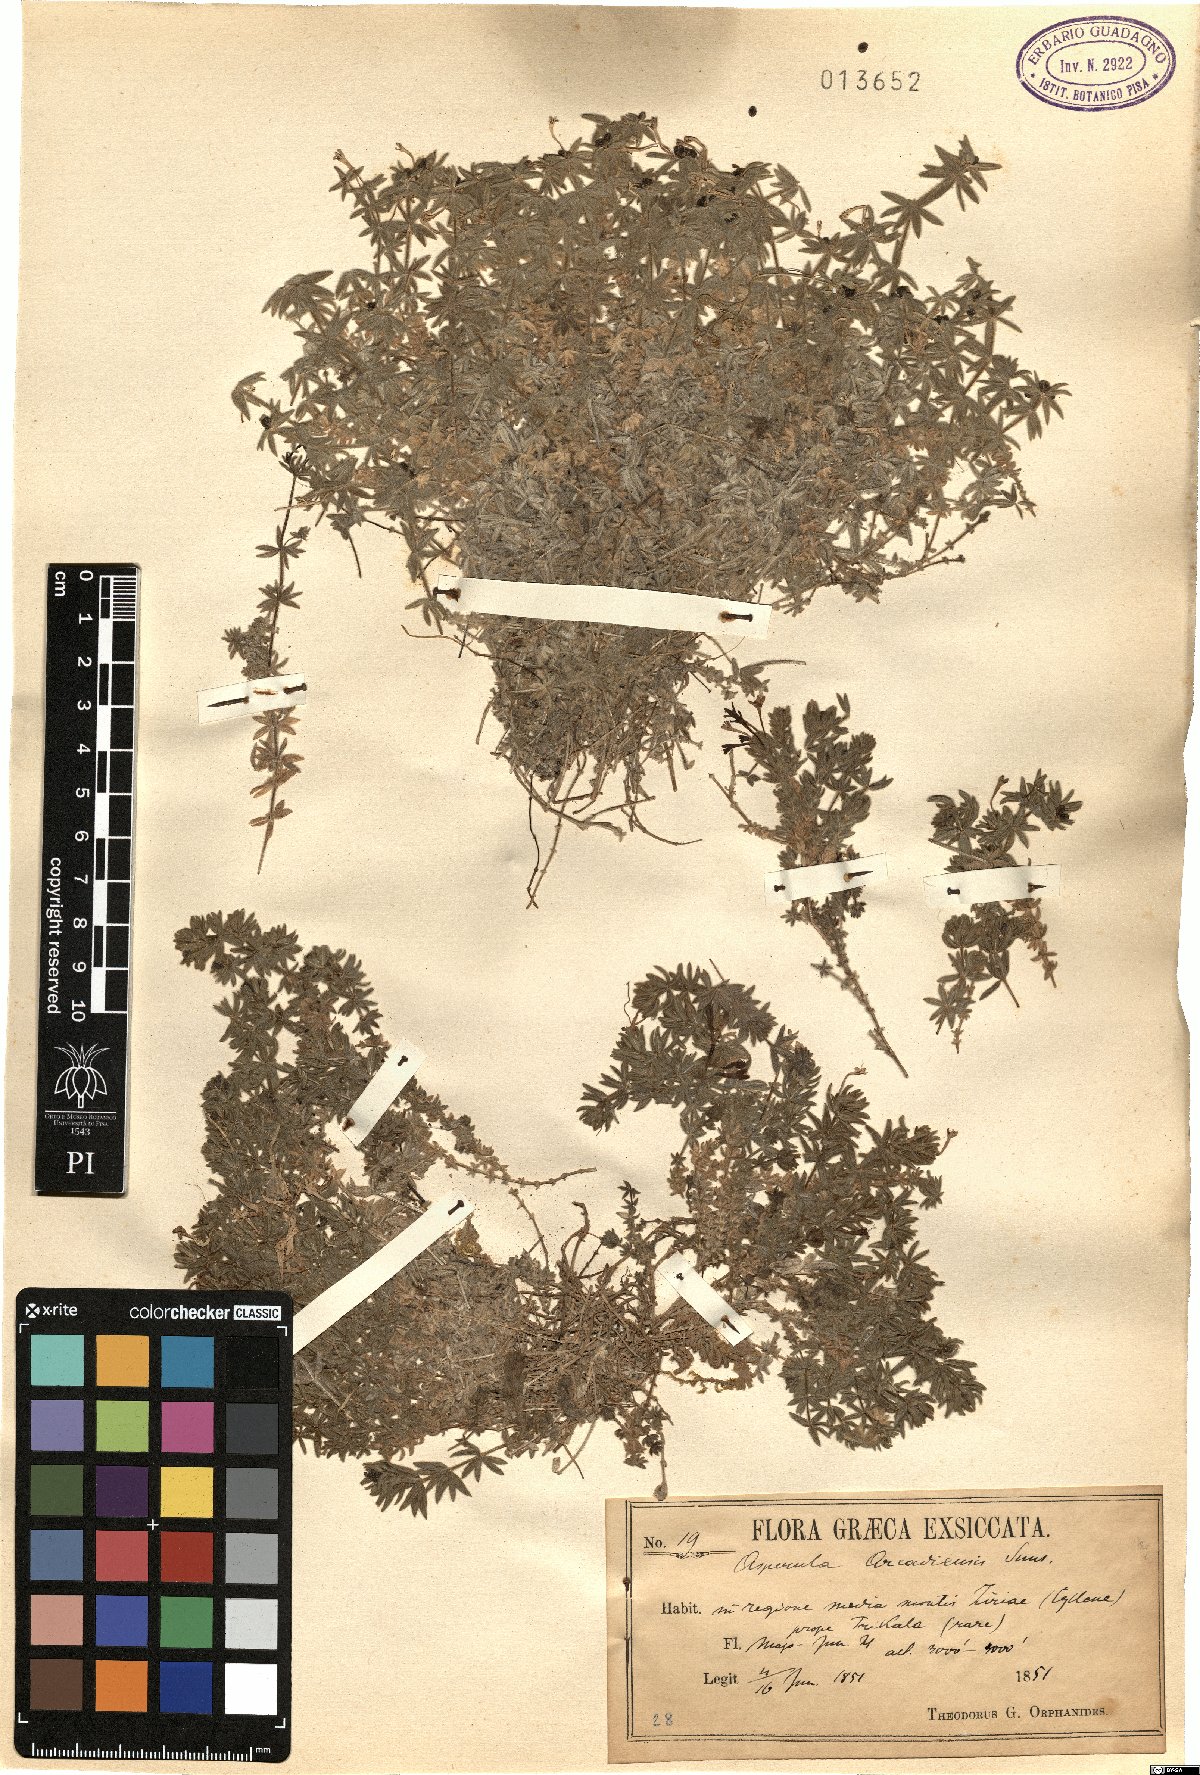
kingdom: Plantae
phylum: Tracheophyta
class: Magnoliopsida
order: Gentianales
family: Rubiaceae
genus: Hexaphylla
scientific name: Hexaphylla arcadiensis
